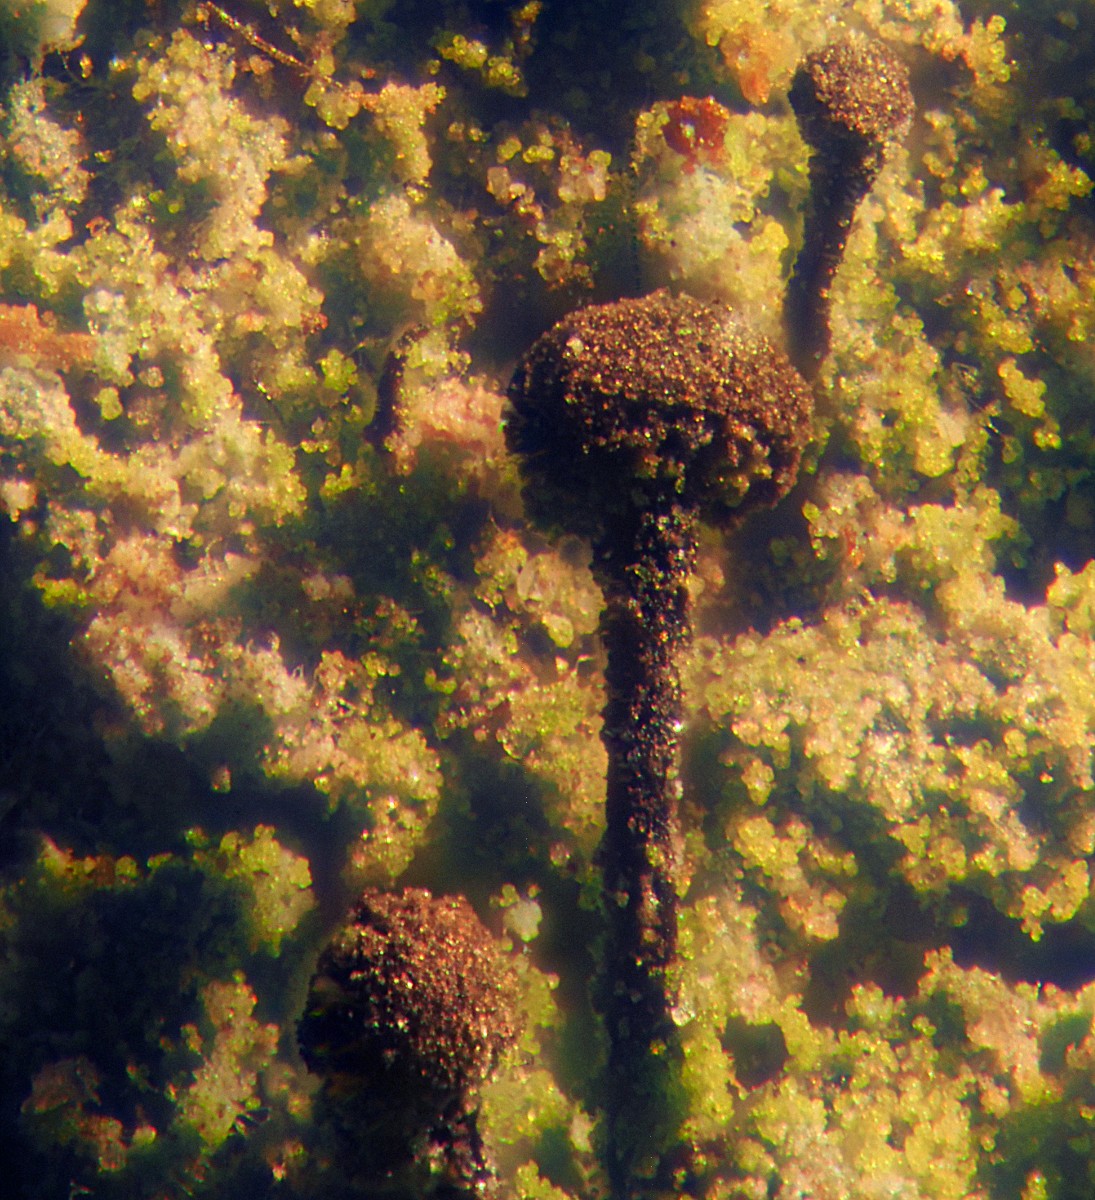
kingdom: Fungi
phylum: Ascomycota
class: Coniocybomycetes
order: Coniocybales
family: Coniocybaceae
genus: Chaenotheca
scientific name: Chaenotheca trichialis
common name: grå knappenålslav
